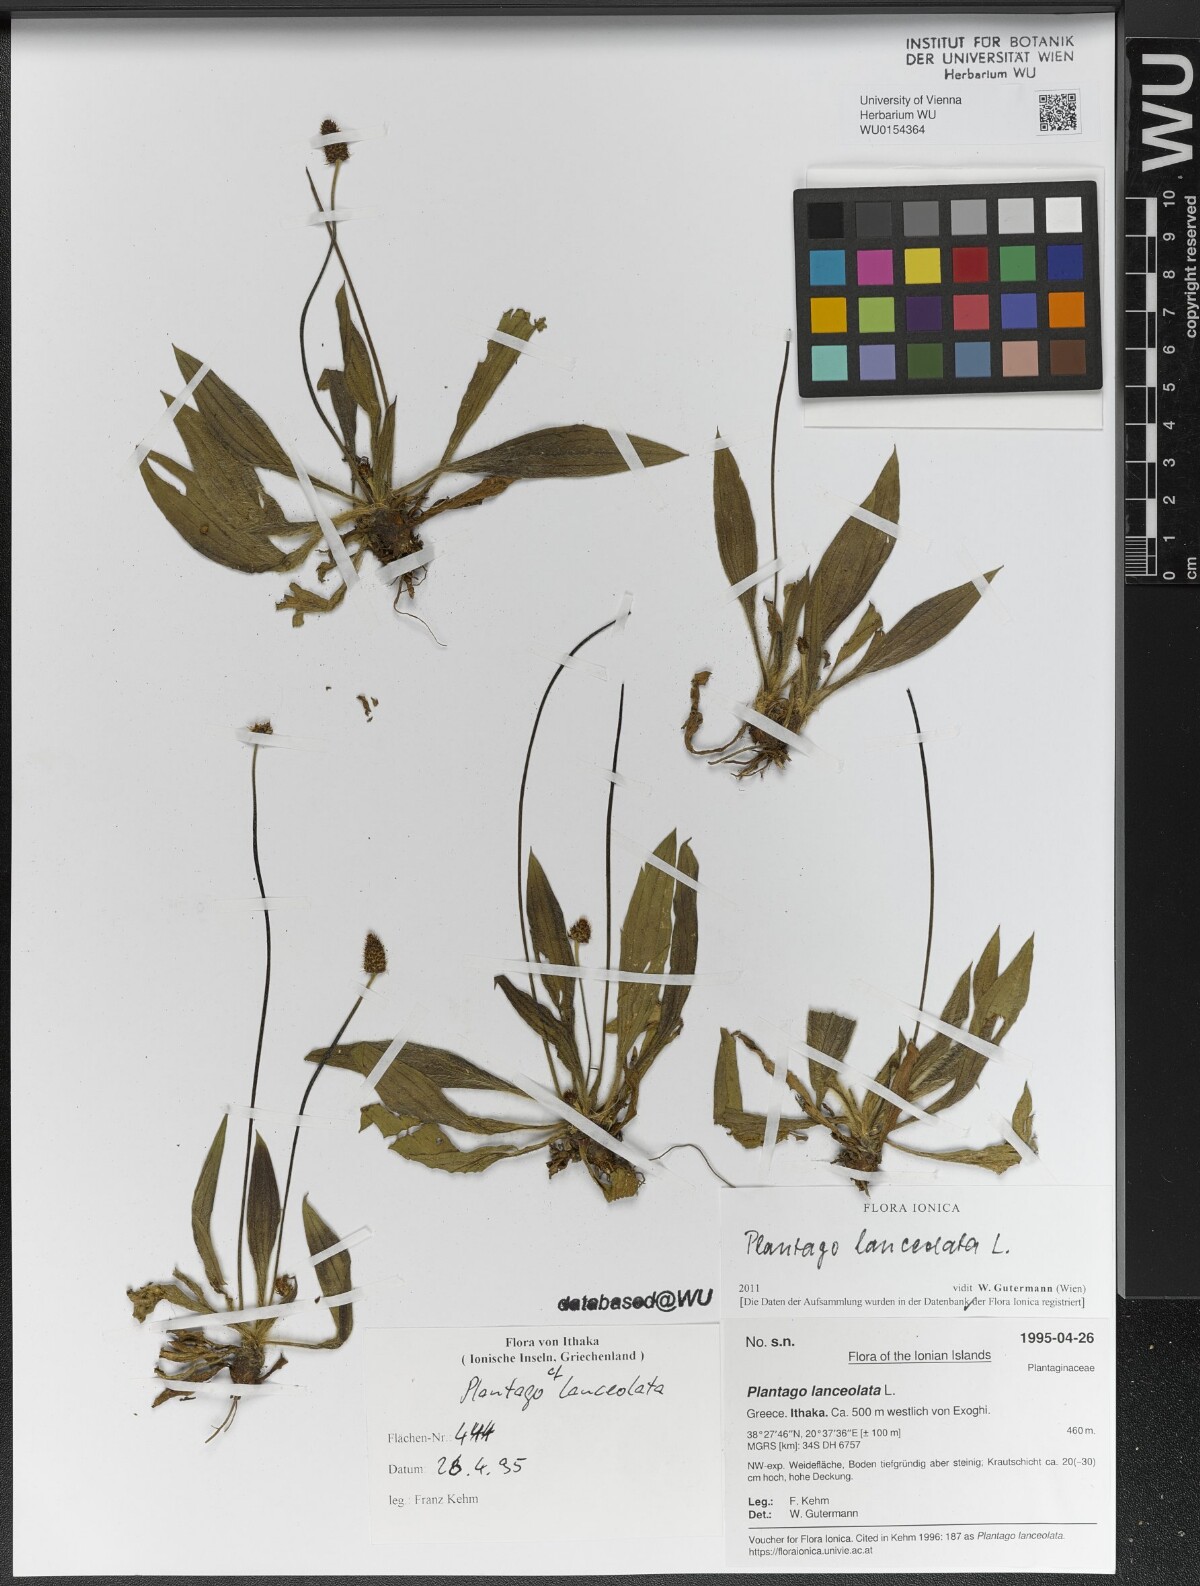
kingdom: Plantae
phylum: Tracheophyta
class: Magnoliopsida
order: Lamiales
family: Plantaginaceae
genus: Plantago
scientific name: Plantago lanceolata
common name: Ribwort plantain
